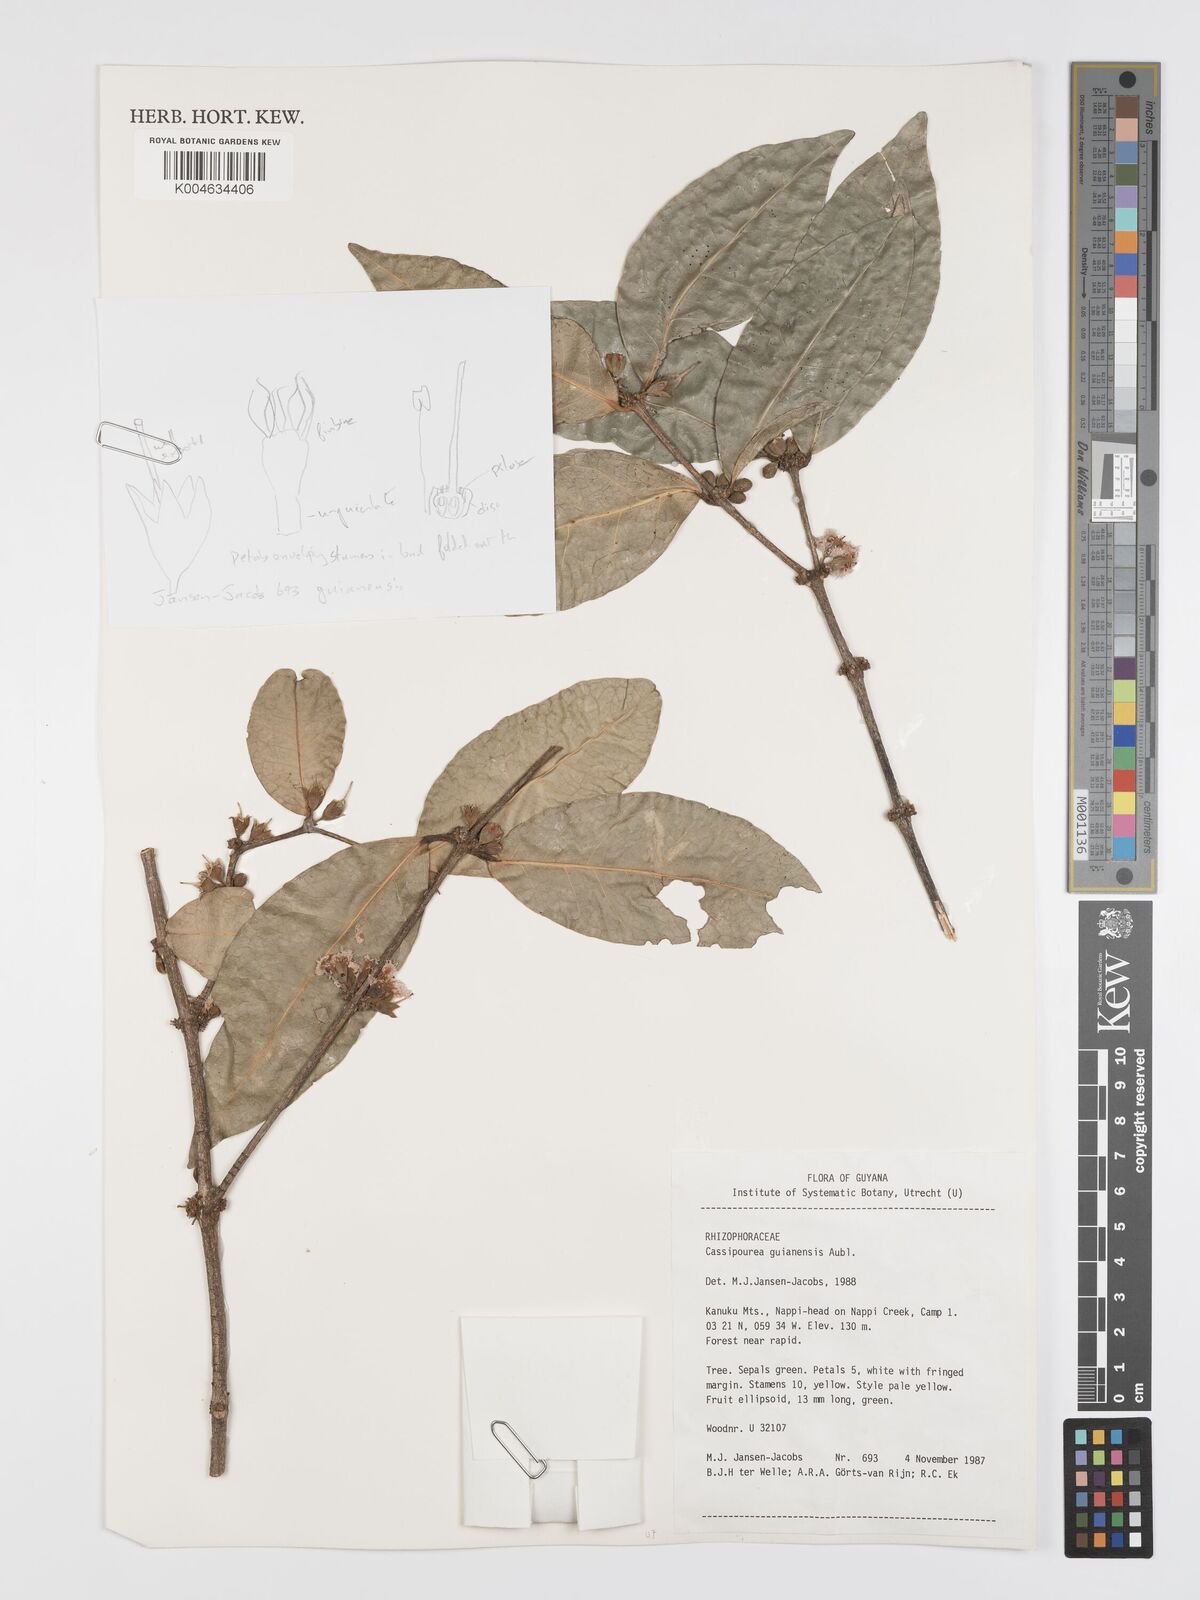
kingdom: Plantae
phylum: Tracheophyta
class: Magnoliopsida
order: Malpighiales
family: Rhizophoraceae
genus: Cassipourea
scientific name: Cassipourea guianensis
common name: Bastard waterwood
